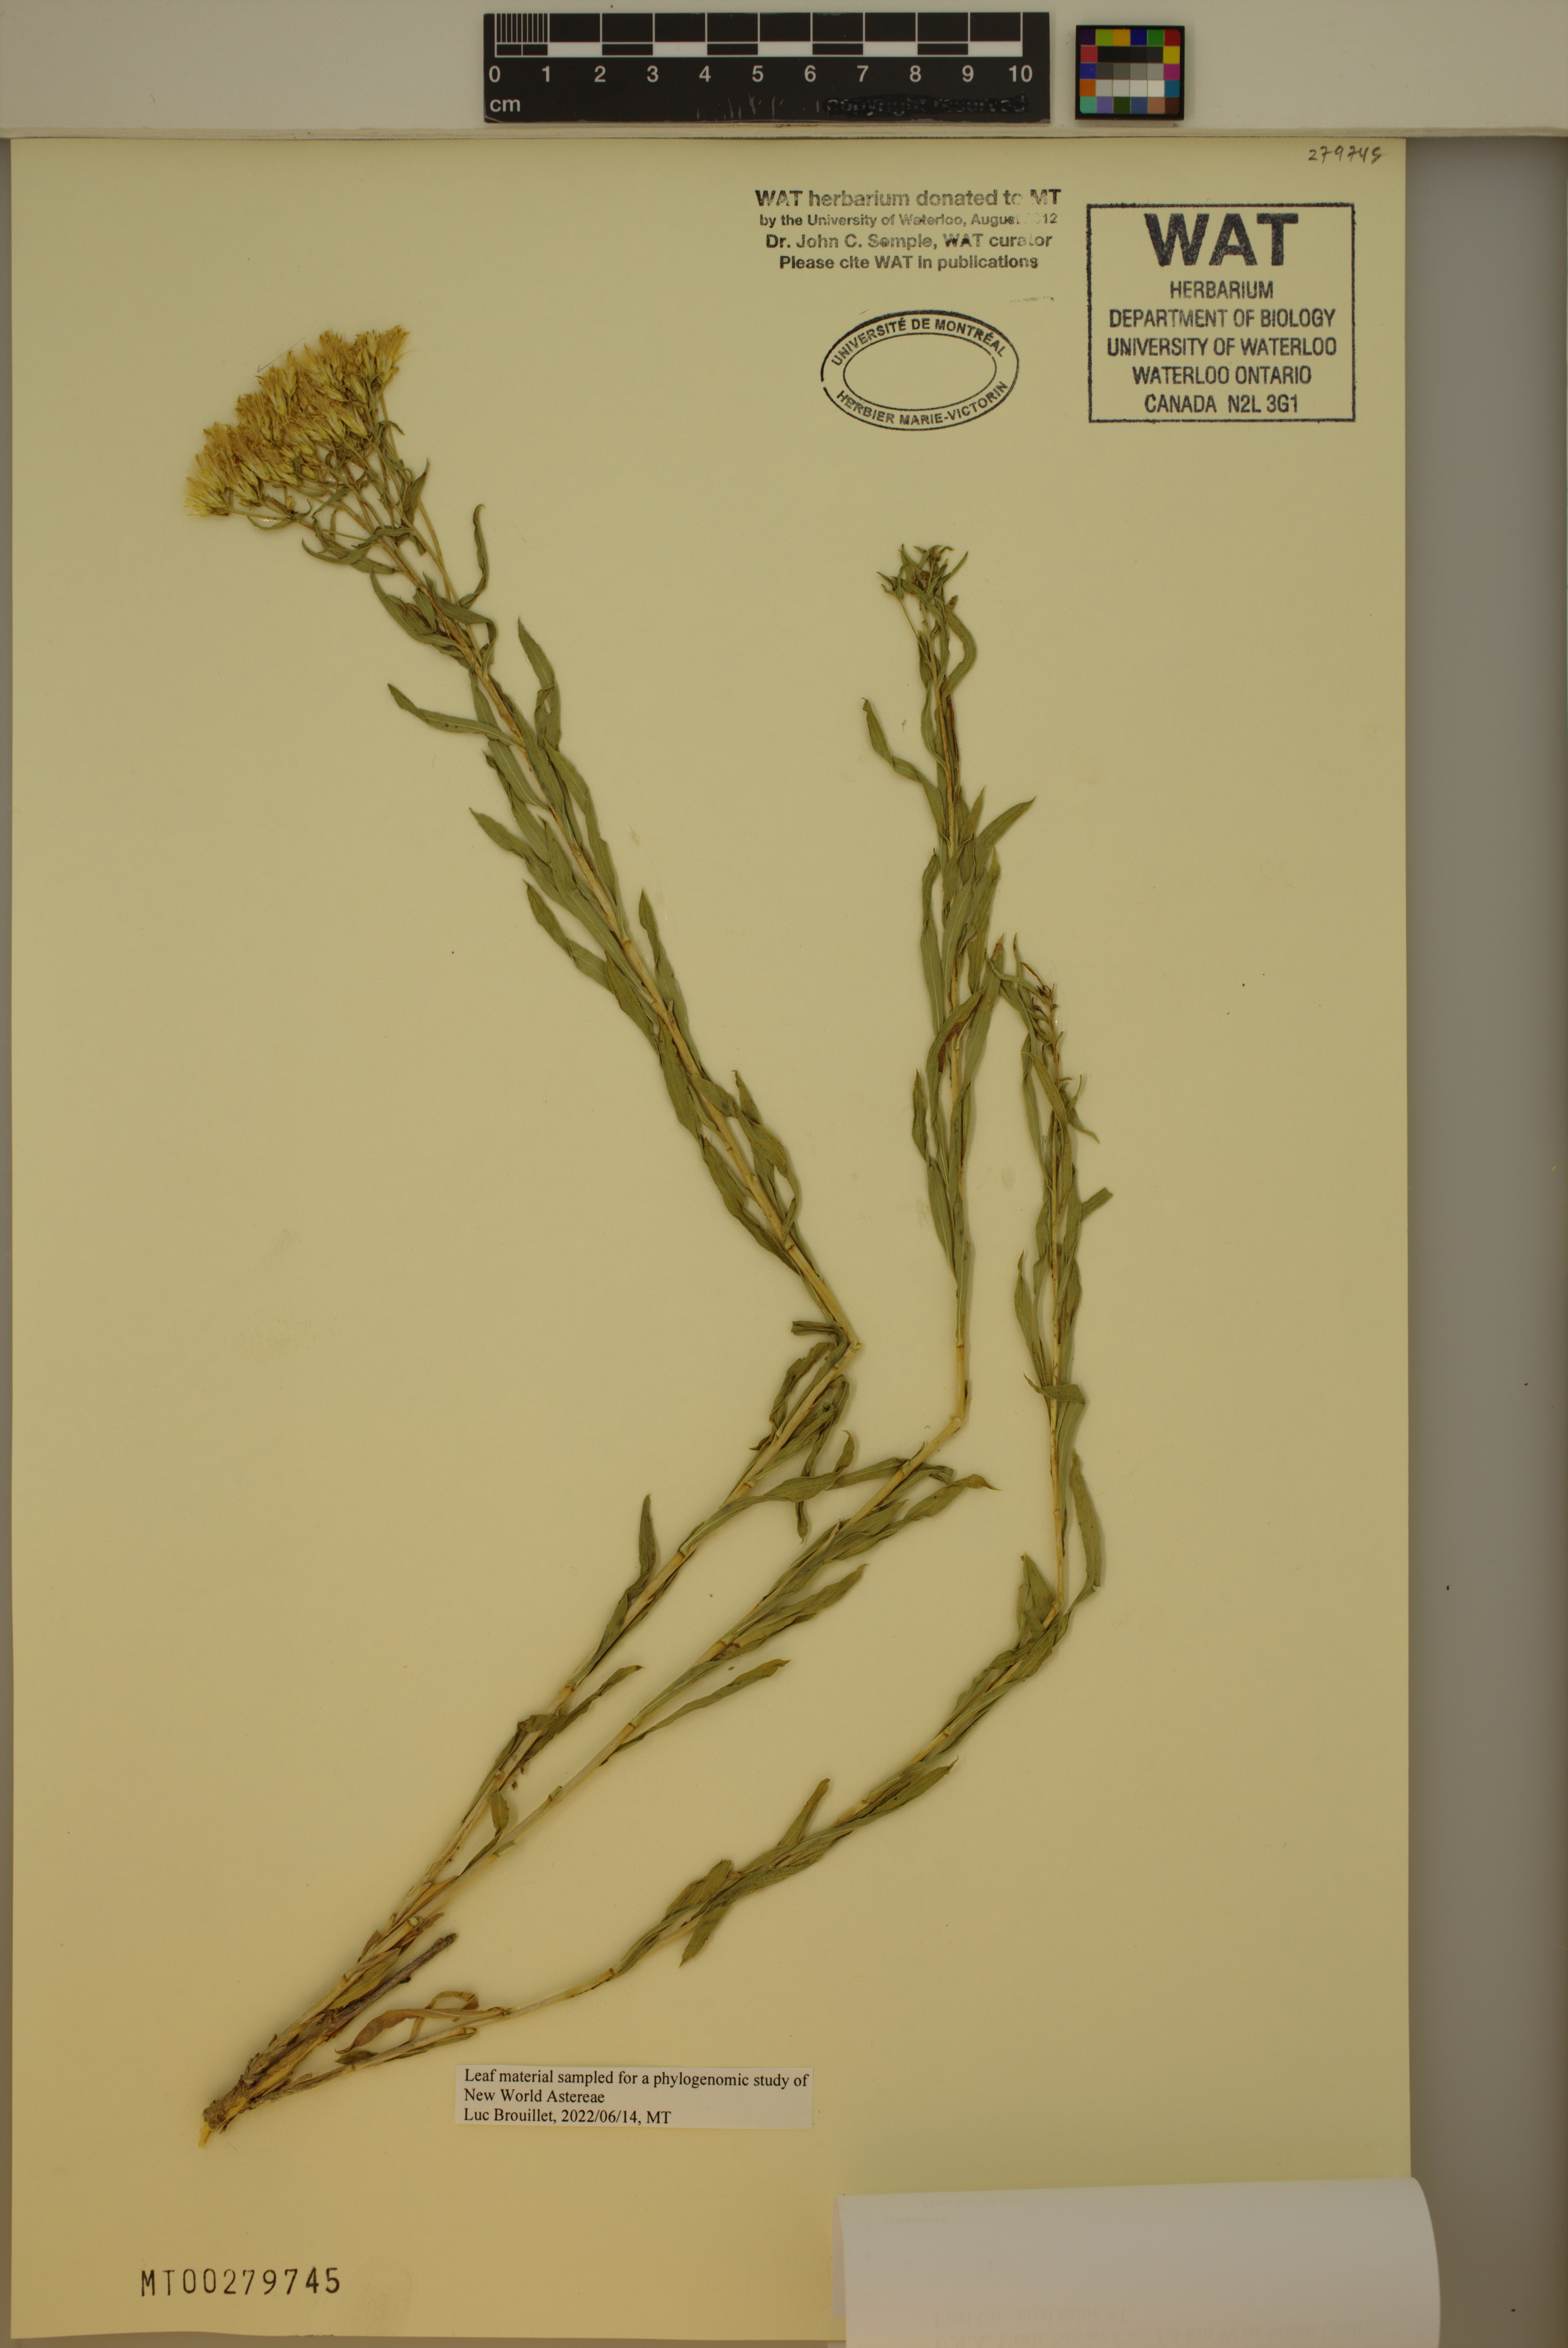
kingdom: Plantae
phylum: Tracheophyta
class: Magnoliopsida
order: Asterales
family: Asteraceae
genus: Chrysothamnus
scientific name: Chrysothamnus viscidiflorus
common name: Yellow rabbitbrush
